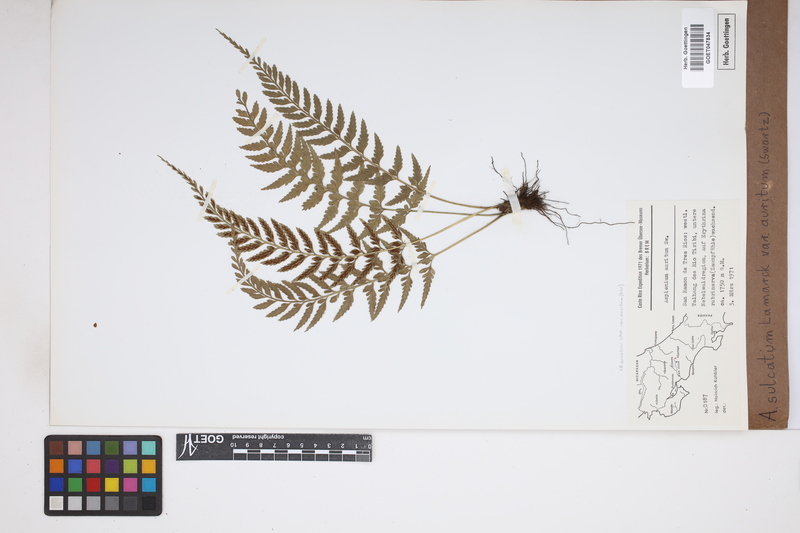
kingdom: Plantae
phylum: Tracheophyta
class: Polypodiopsida
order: Polypodiales
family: Aspleniaceae
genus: Asplenium
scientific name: Asplenium auritum
